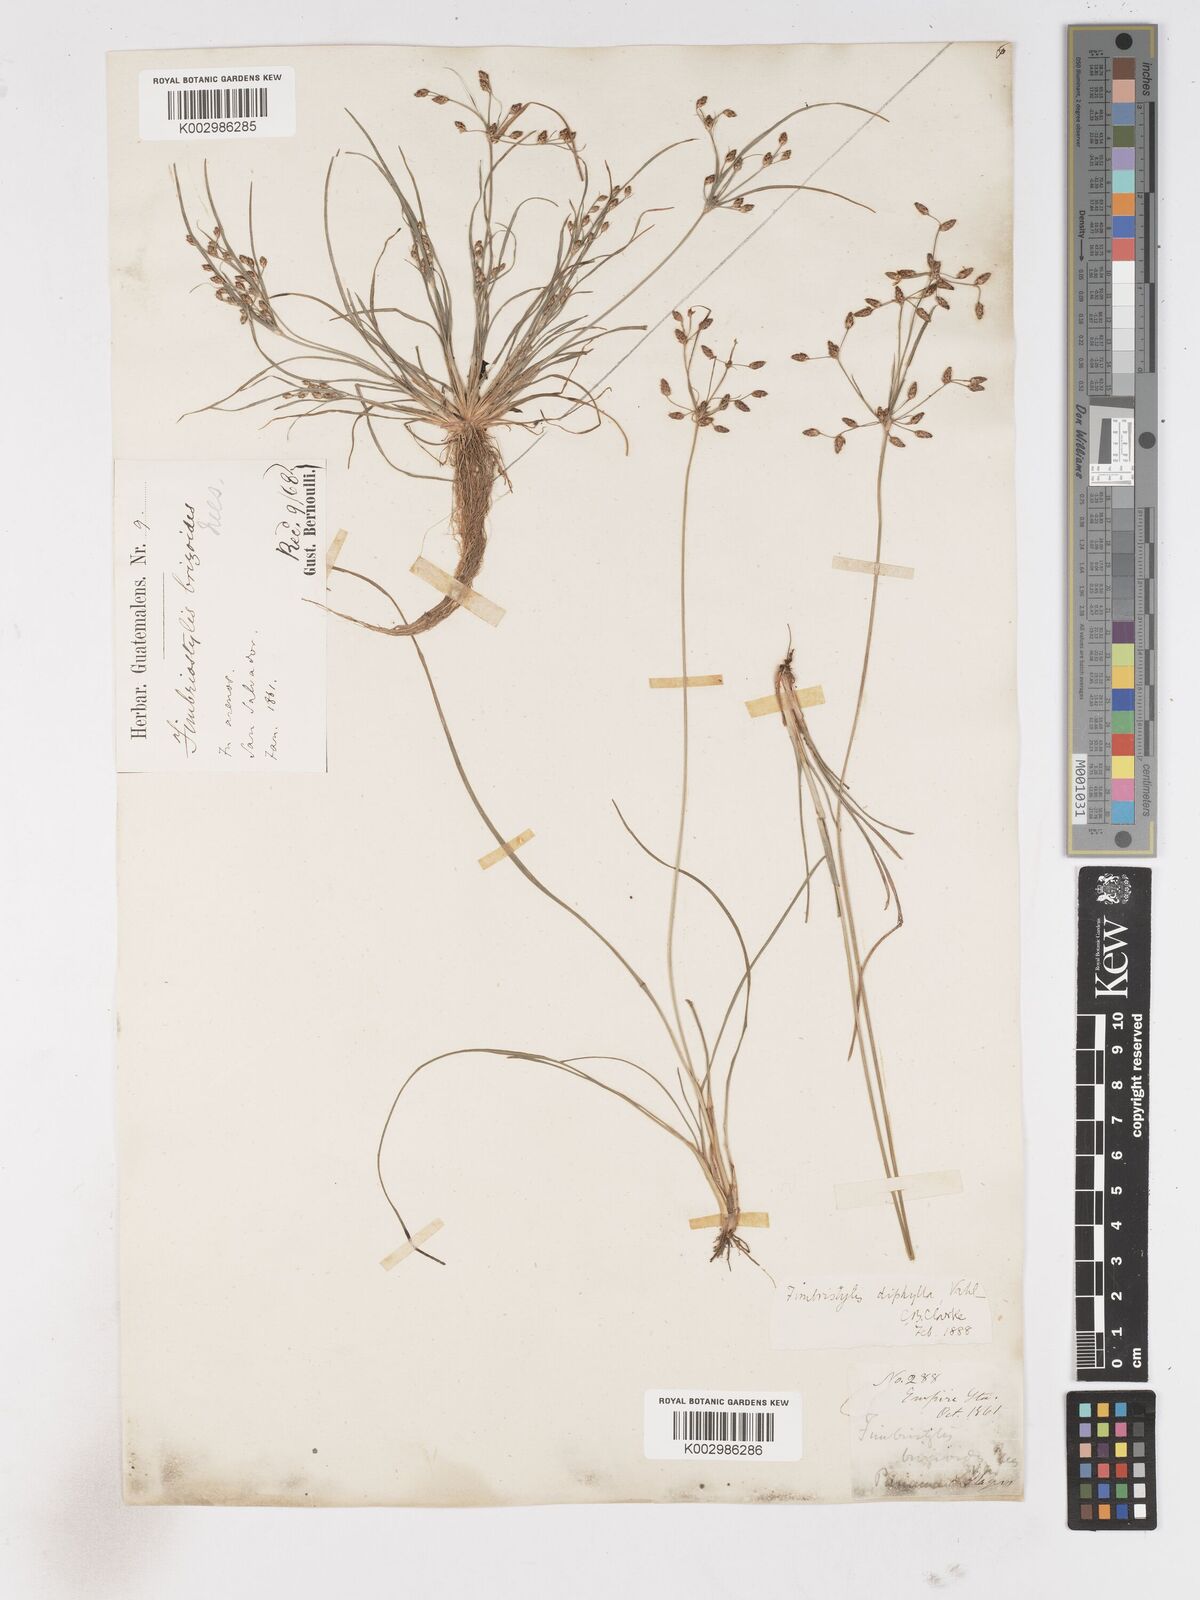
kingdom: Plantae
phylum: Tracheophyta
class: Liliopsida
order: Poales
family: Cyperaceae
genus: Fimbristylis
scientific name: Fimbristylis dichotoma
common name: Forked fimbry
